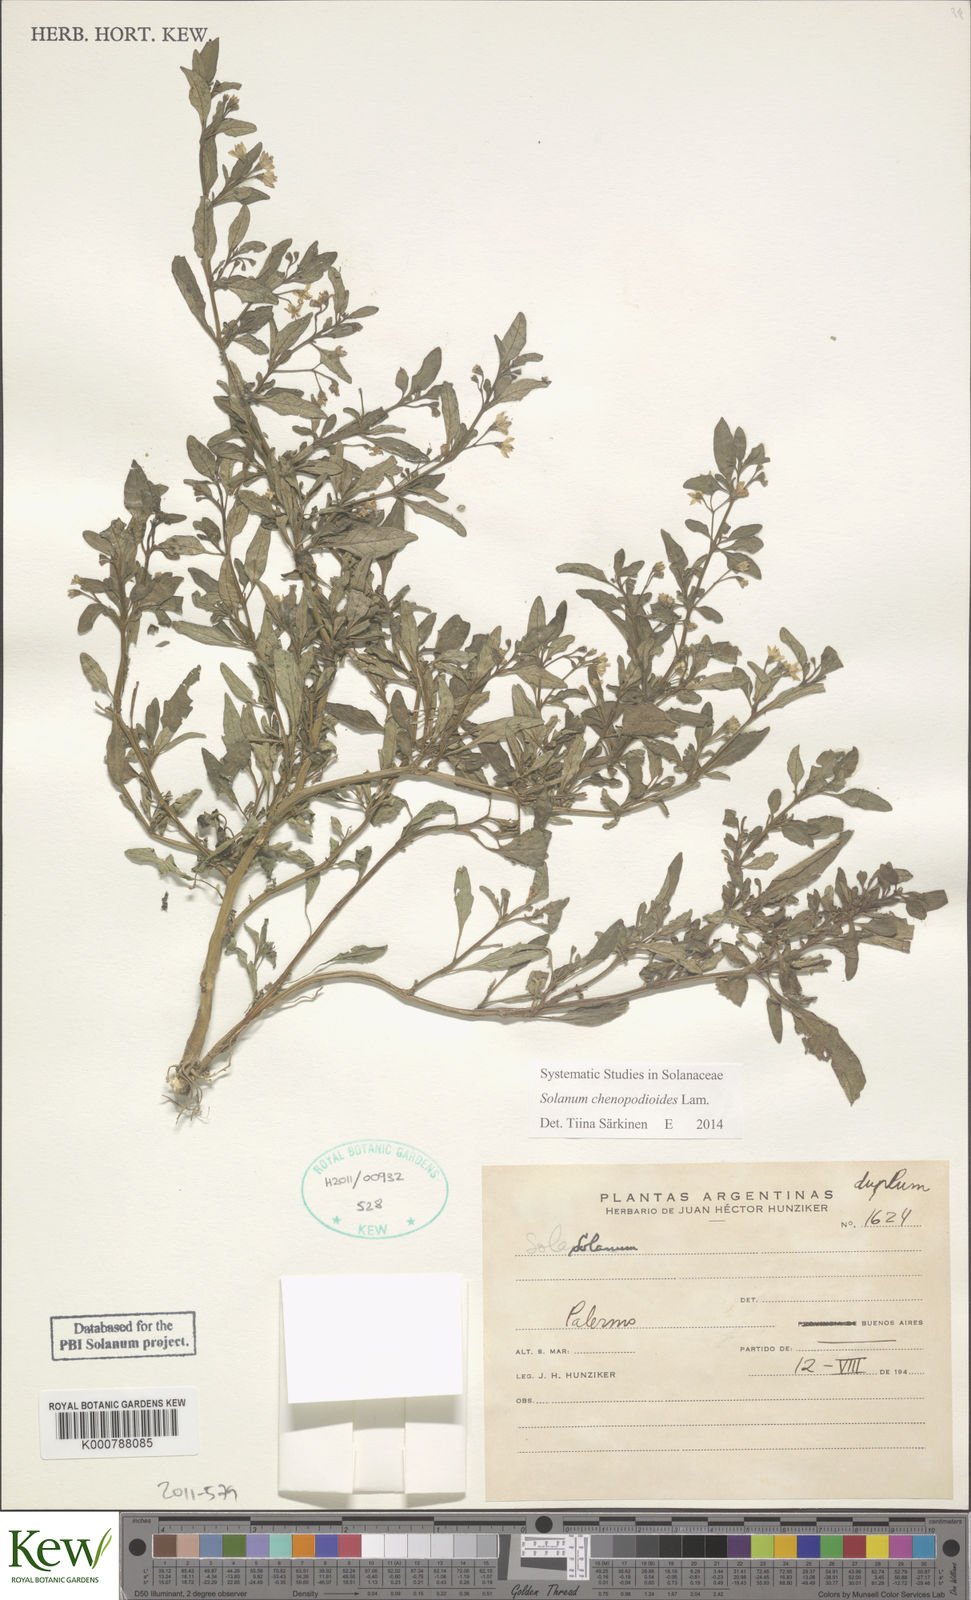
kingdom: Plantae
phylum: Tracheophyta
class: Magnoliopsida
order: Solanales
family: Solanaceae
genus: Solanum
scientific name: Solanum chenopodioides
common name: Tall nightshade
